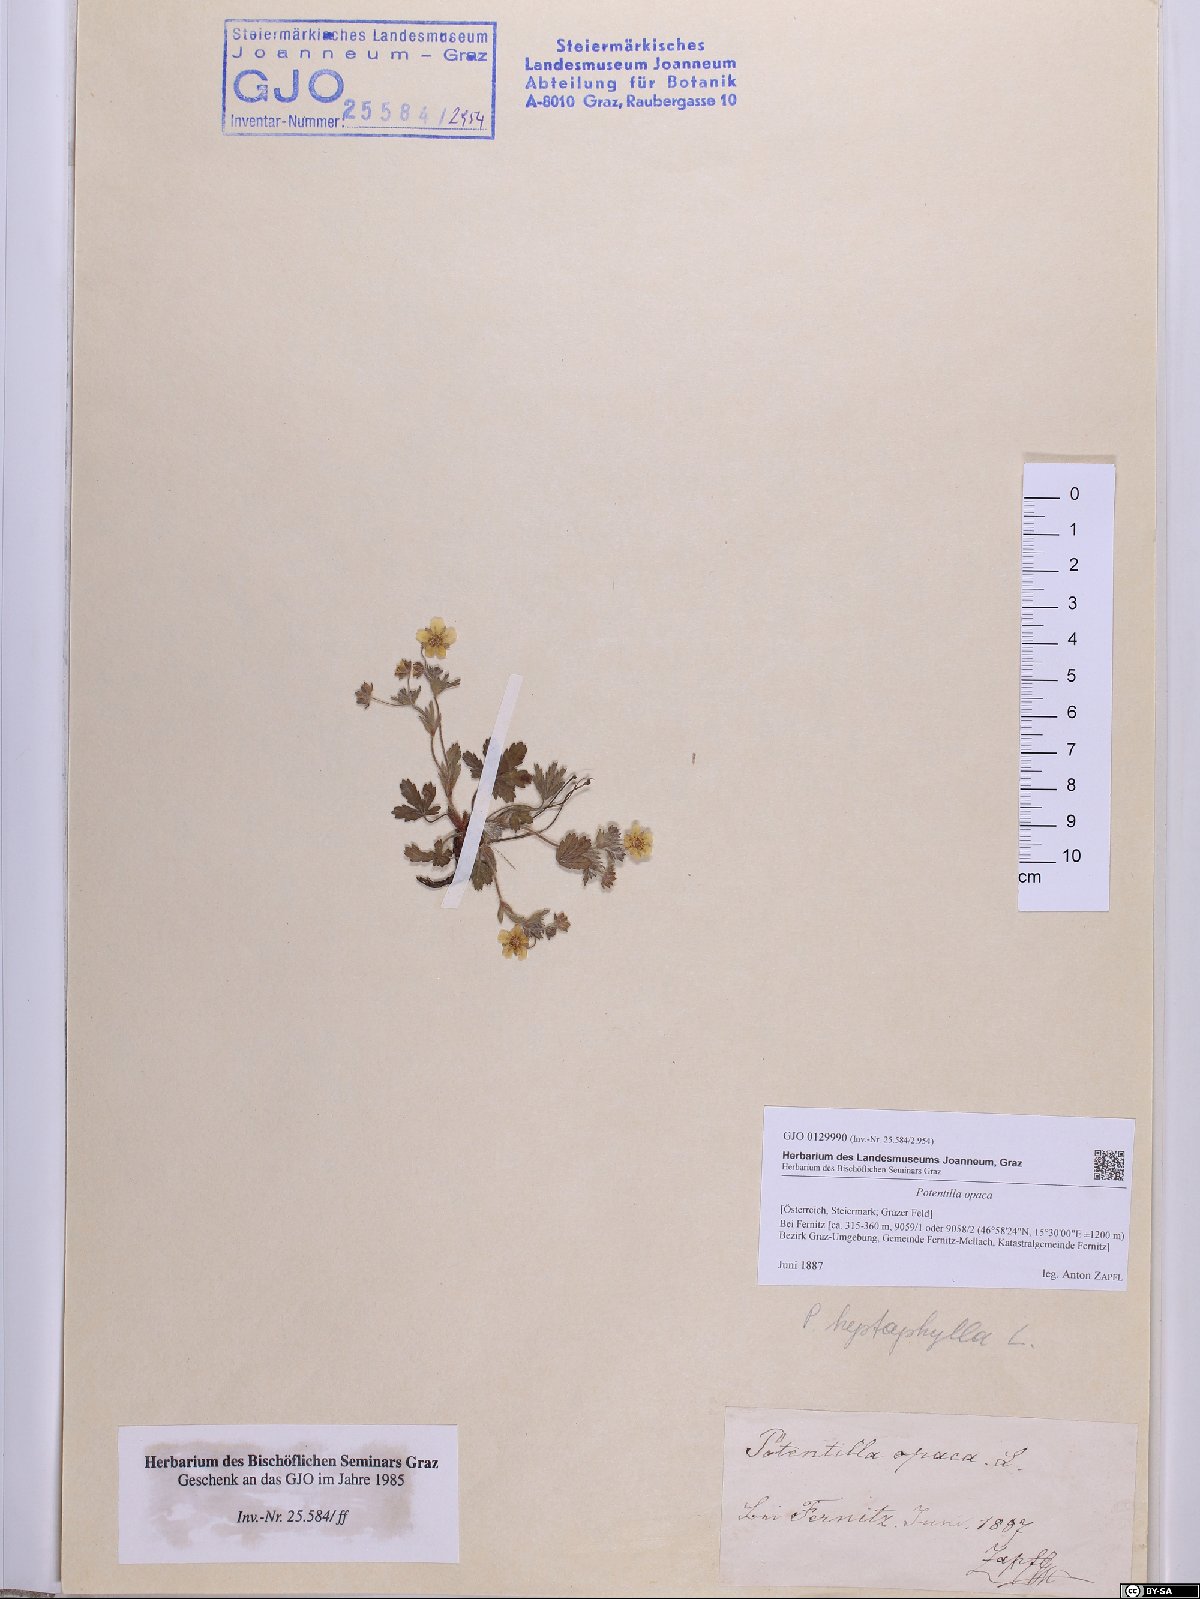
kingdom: Plantae
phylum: Tracheophyta
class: Magnoliopsida
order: Rosales
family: Rosaceae
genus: Potentilla
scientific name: Potentilla
